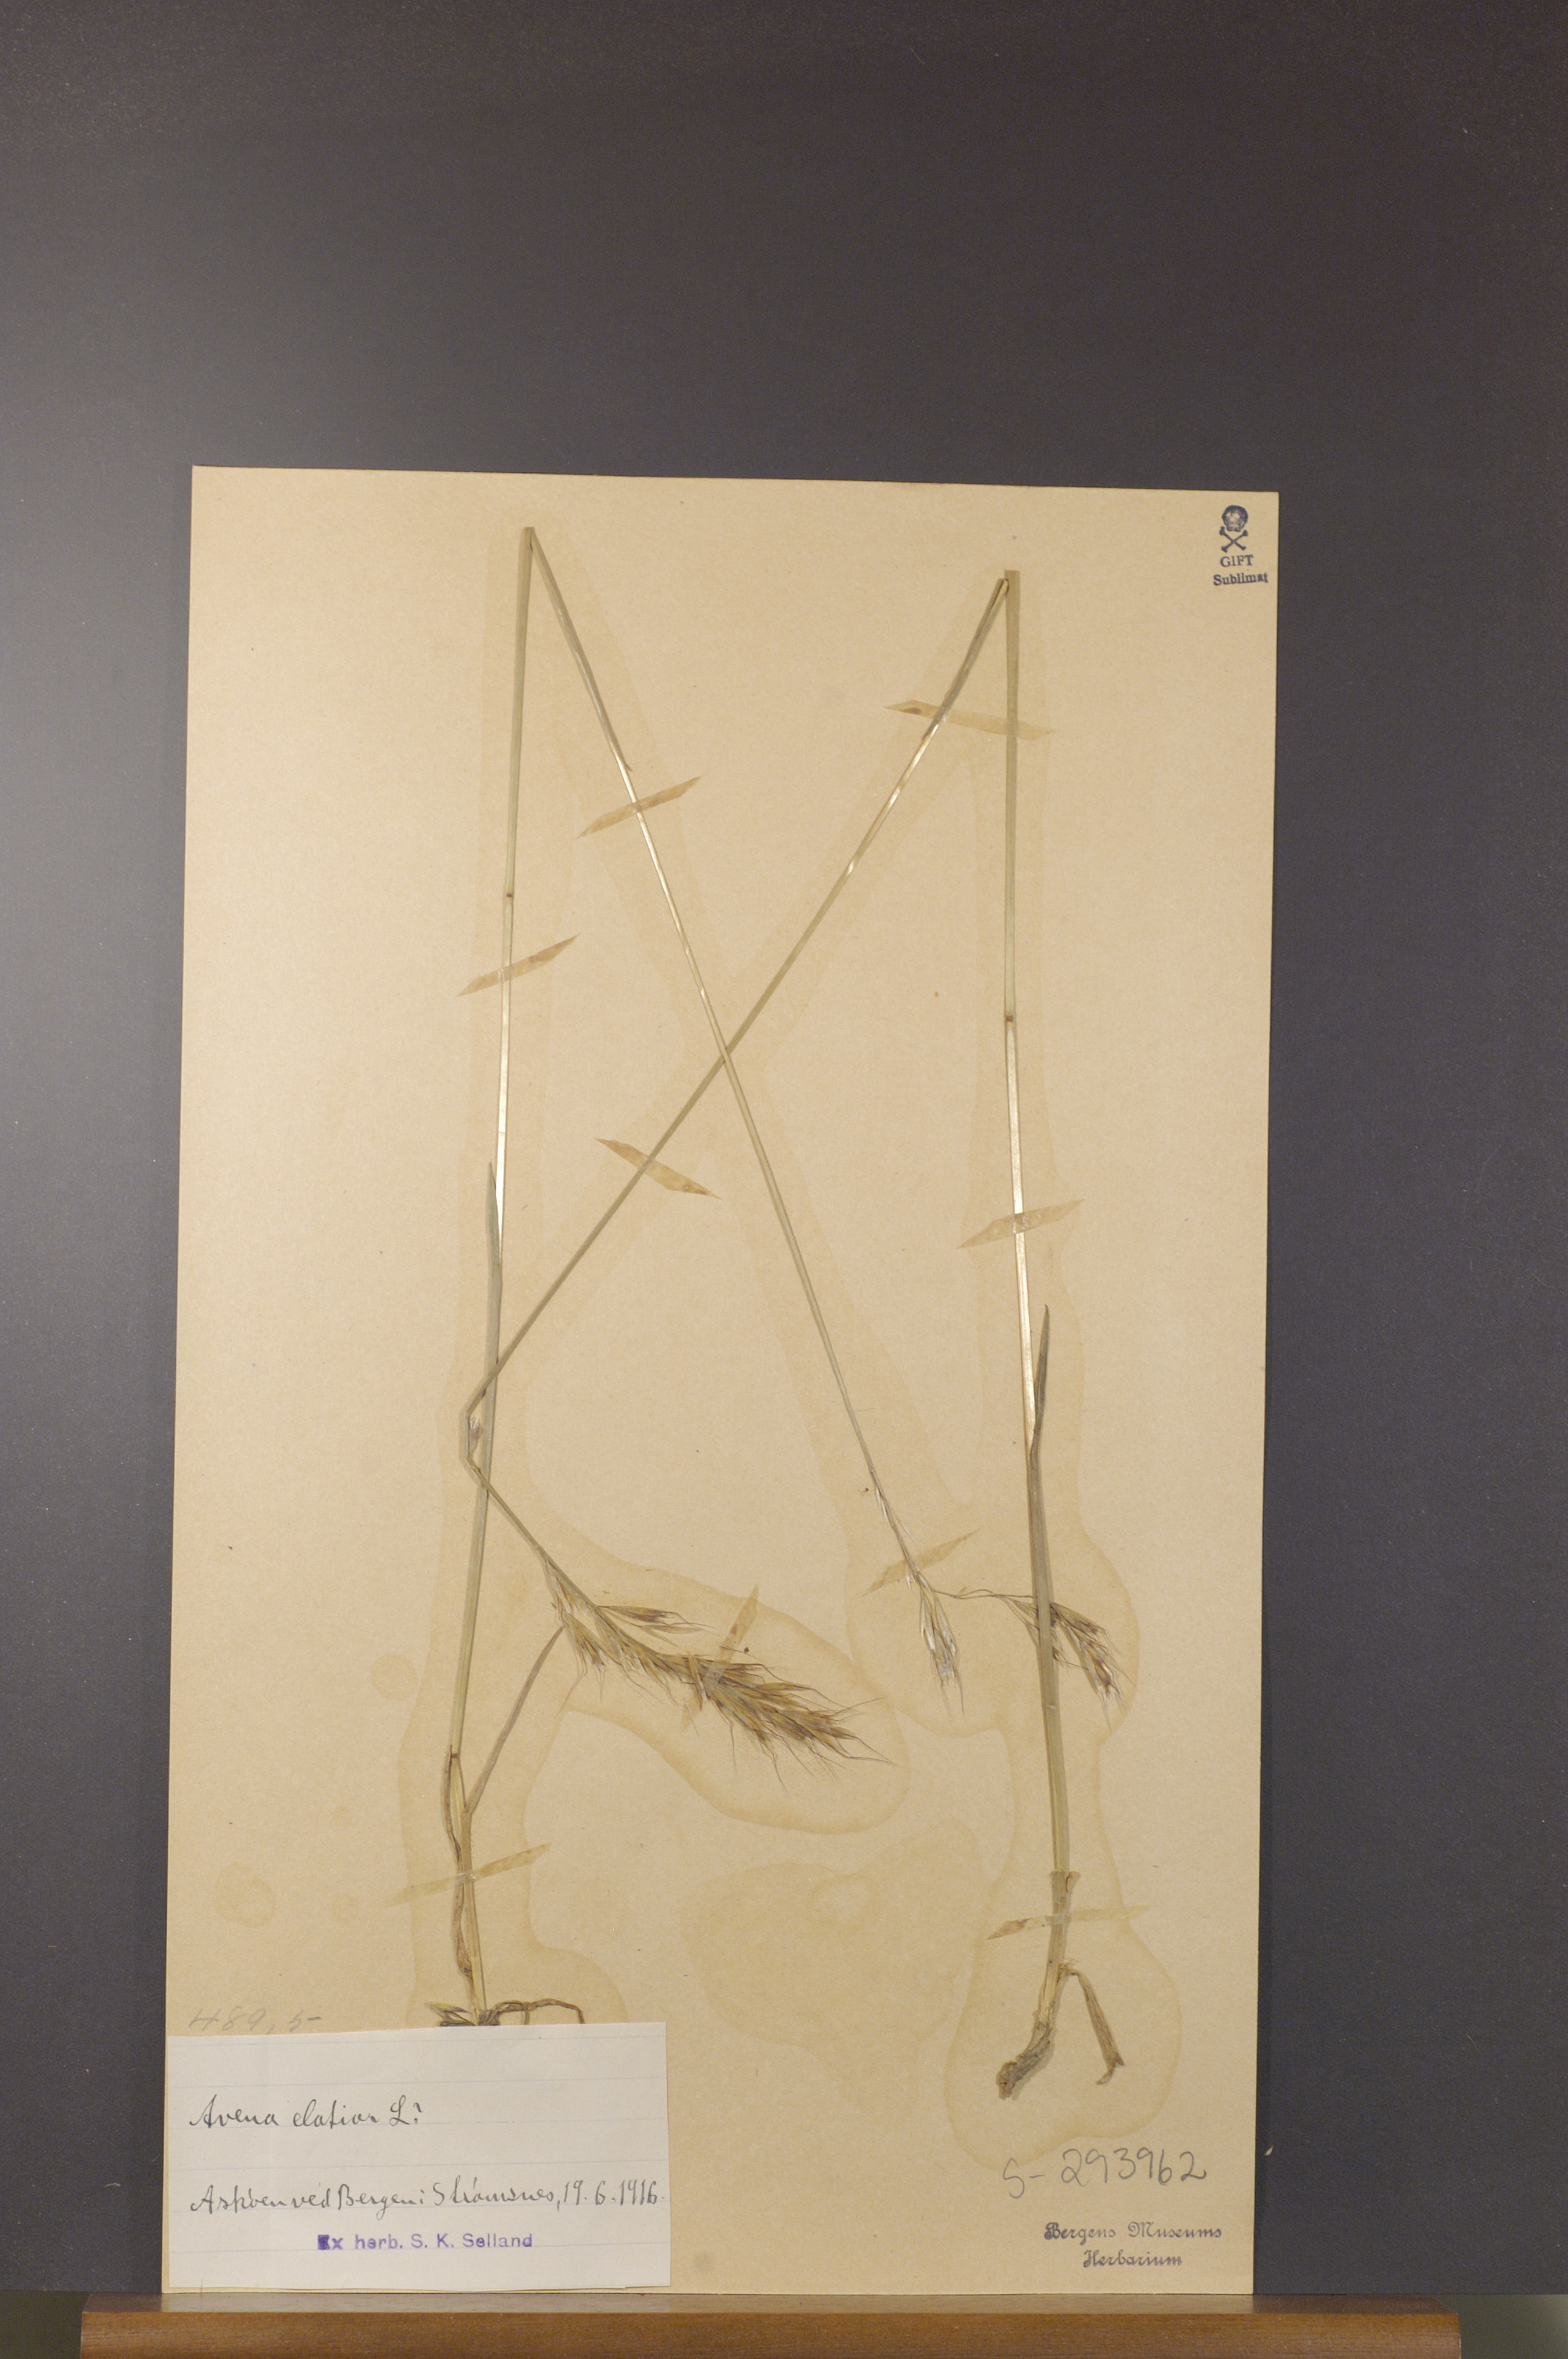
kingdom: Plantae
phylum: Tracheophyta
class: Liliopsida
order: Poales
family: Poaceae
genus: Arrhenatherum
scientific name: Arrhenatherum elatius
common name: Tall oatgrass
